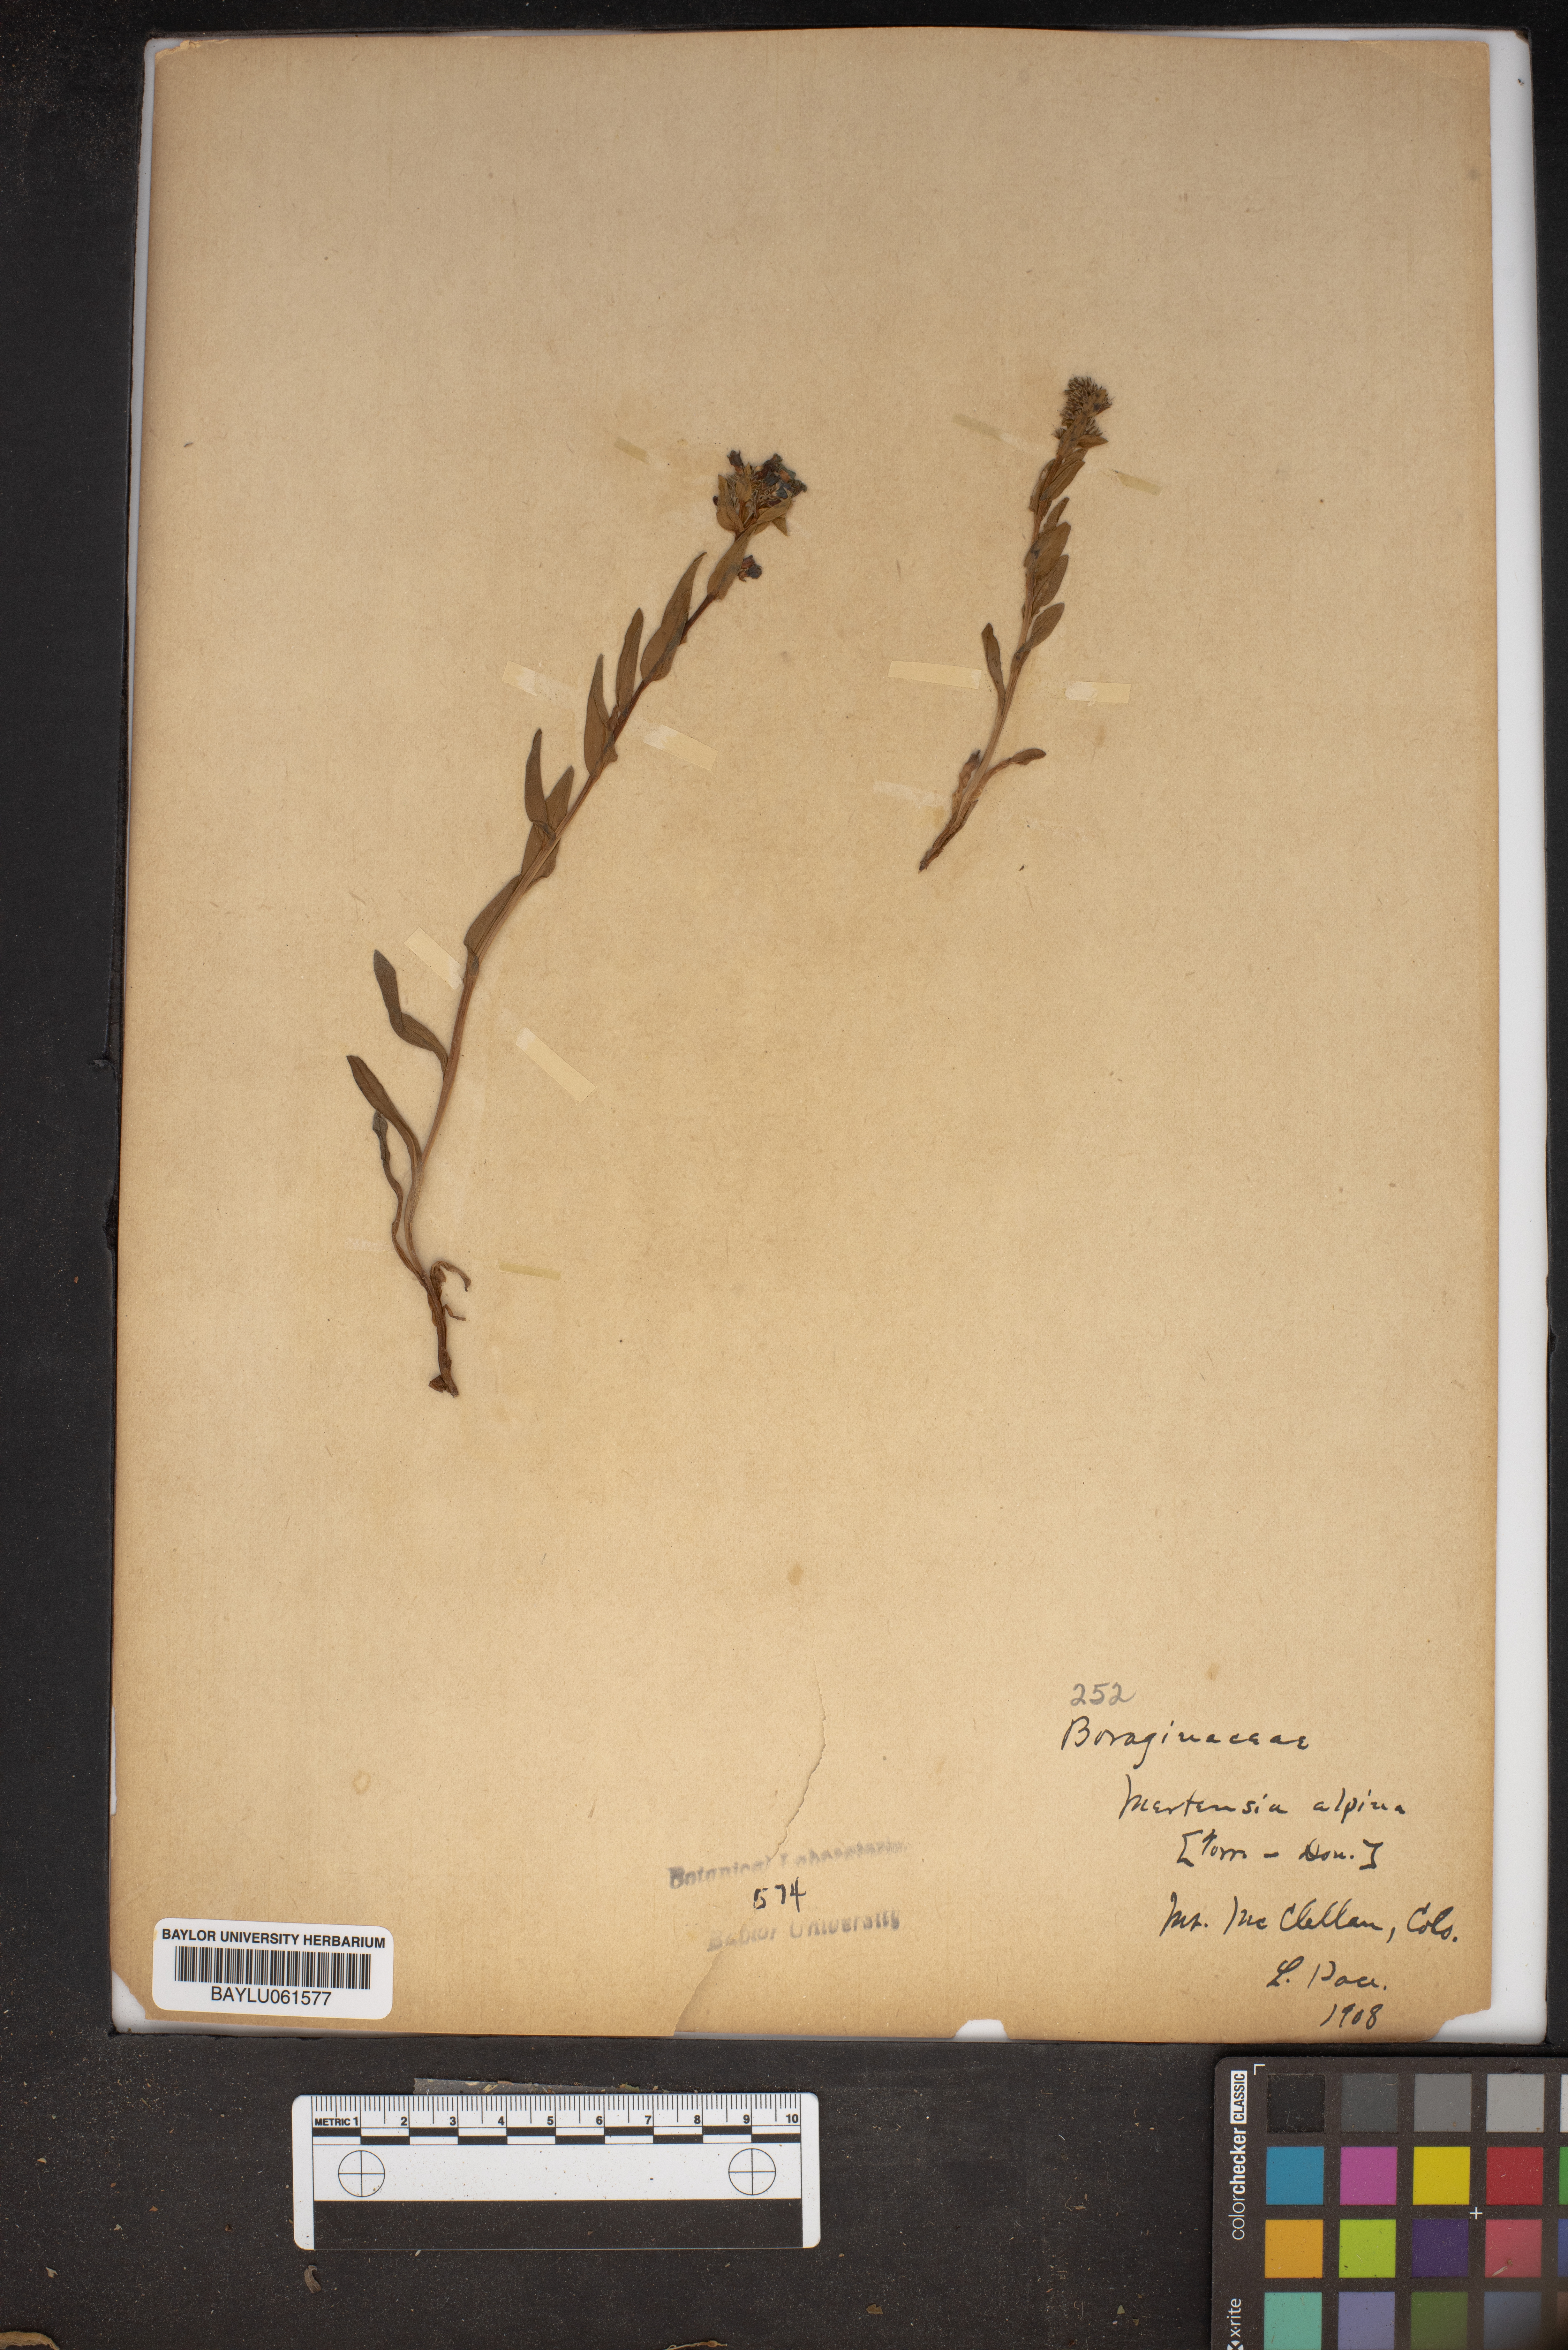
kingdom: Plantae
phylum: Tracheophyta
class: Magnoliopsida
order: Boraginales
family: Boraginaceae
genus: Mertensia
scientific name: Mertensia tweedyi
